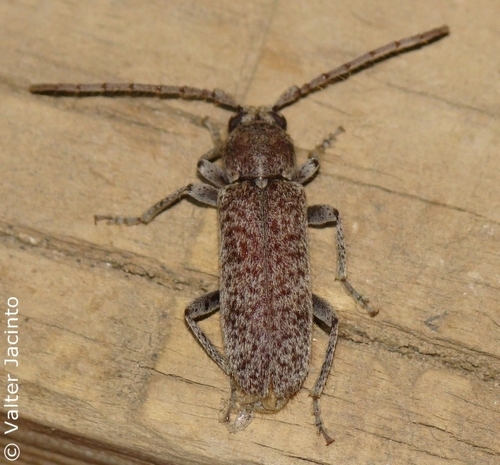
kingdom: Animalia
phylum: Arthropoda
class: Insecta
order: Coleoptera
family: Cerambycidae
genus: Trichoferus
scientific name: Trichoferus fasciculatus
